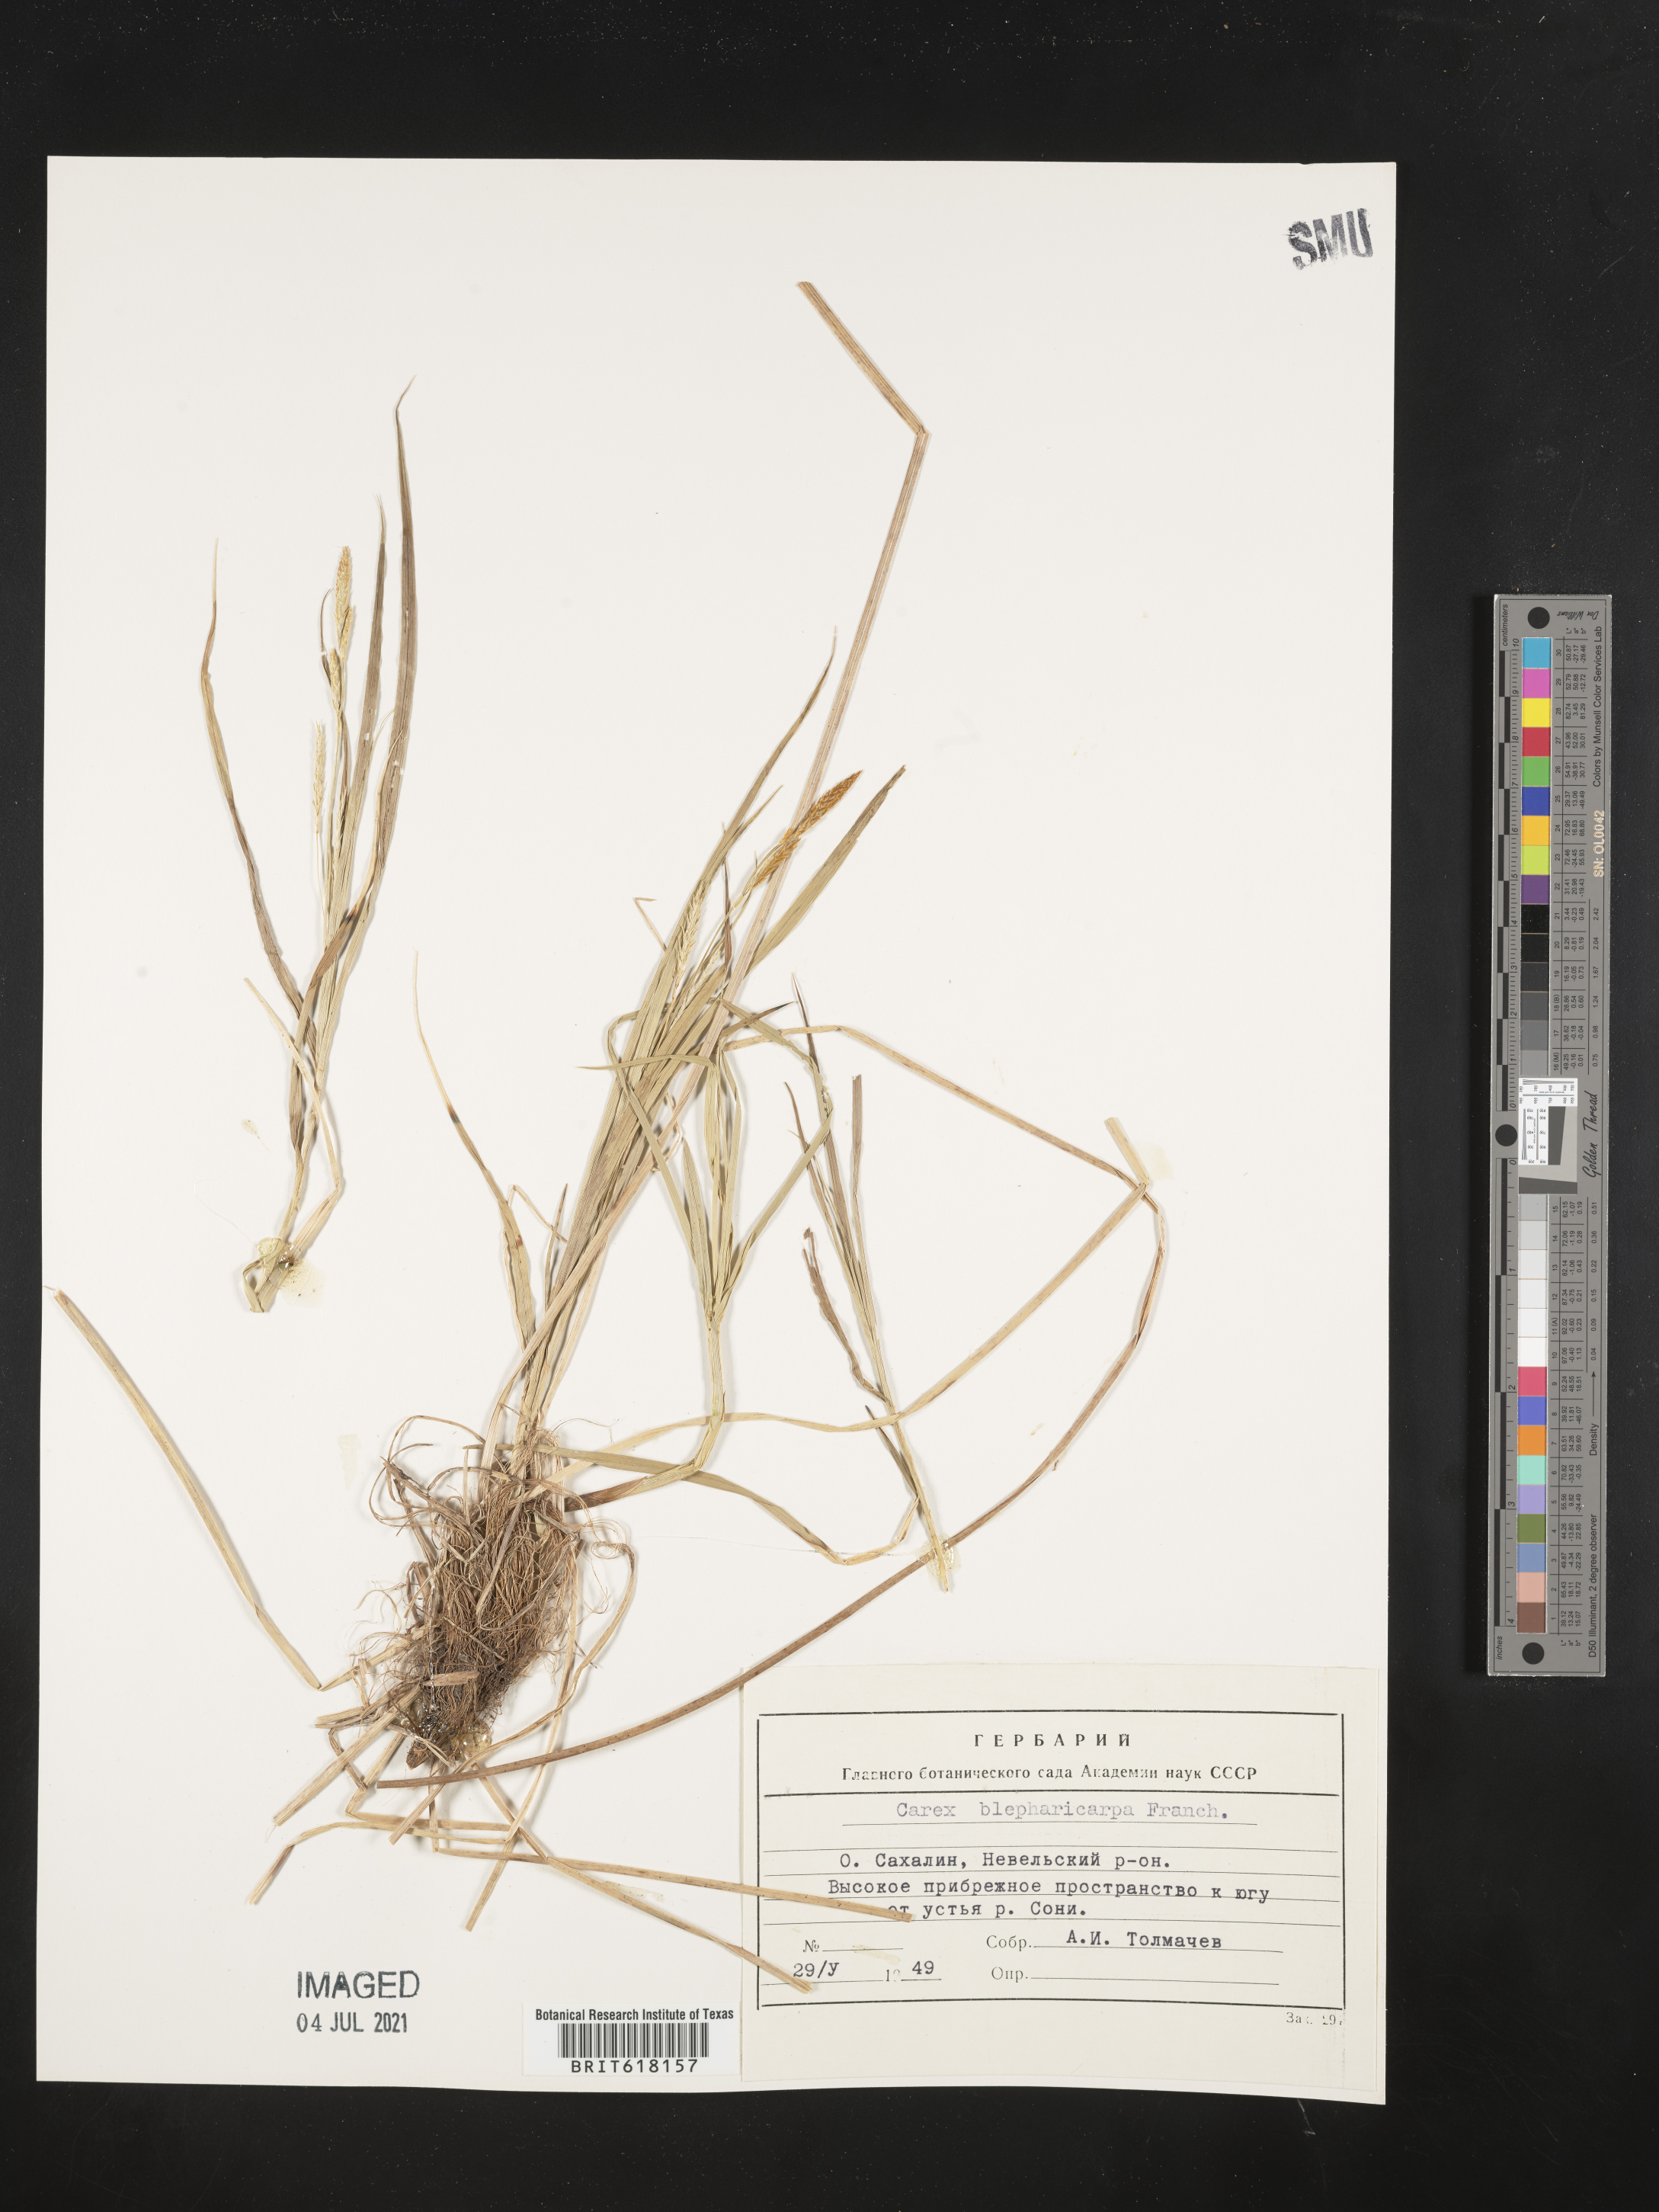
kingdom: Plantae
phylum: Tracheophyta
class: Liliopsida
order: Poales
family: Cyperaceae
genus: Carex
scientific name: Carex blepharicarpa
